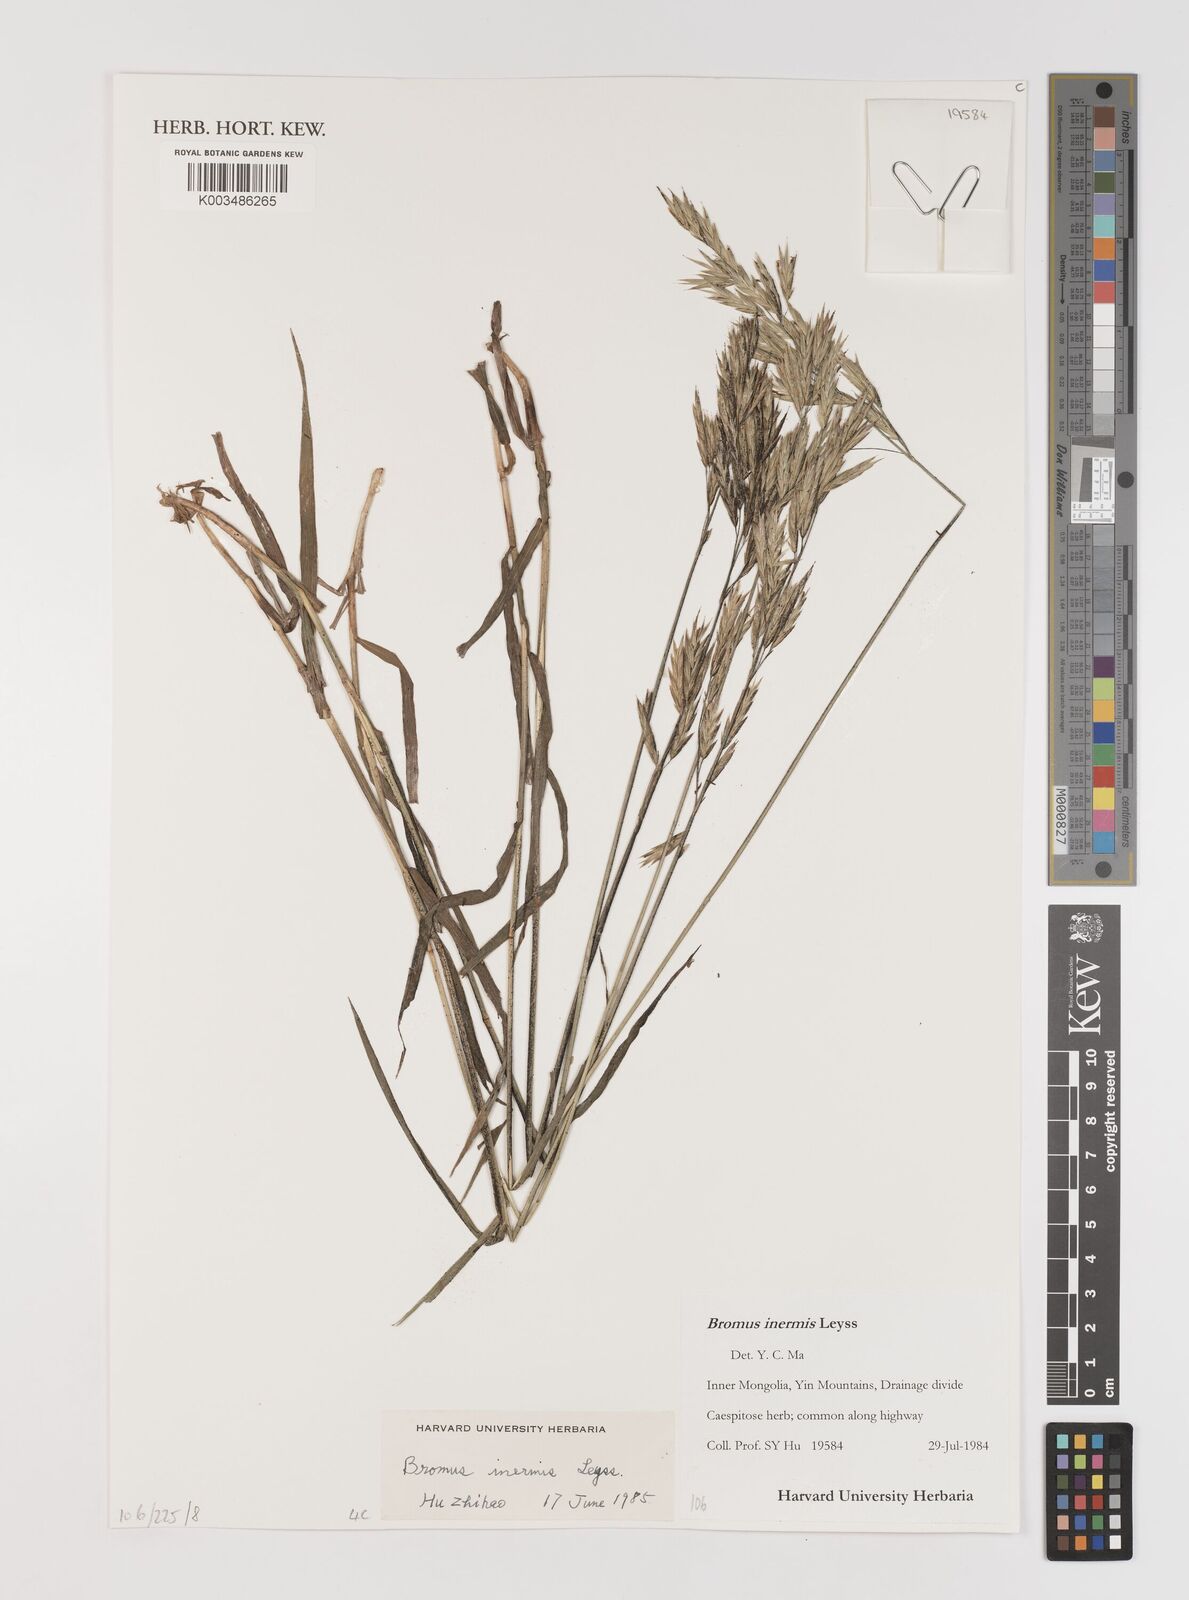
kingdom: Plantae
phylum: Tracheophyta
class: Liliopsida
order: Poales
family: Poaceae
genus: Bromus
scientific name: Bromus inermis
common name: Smooth brome
